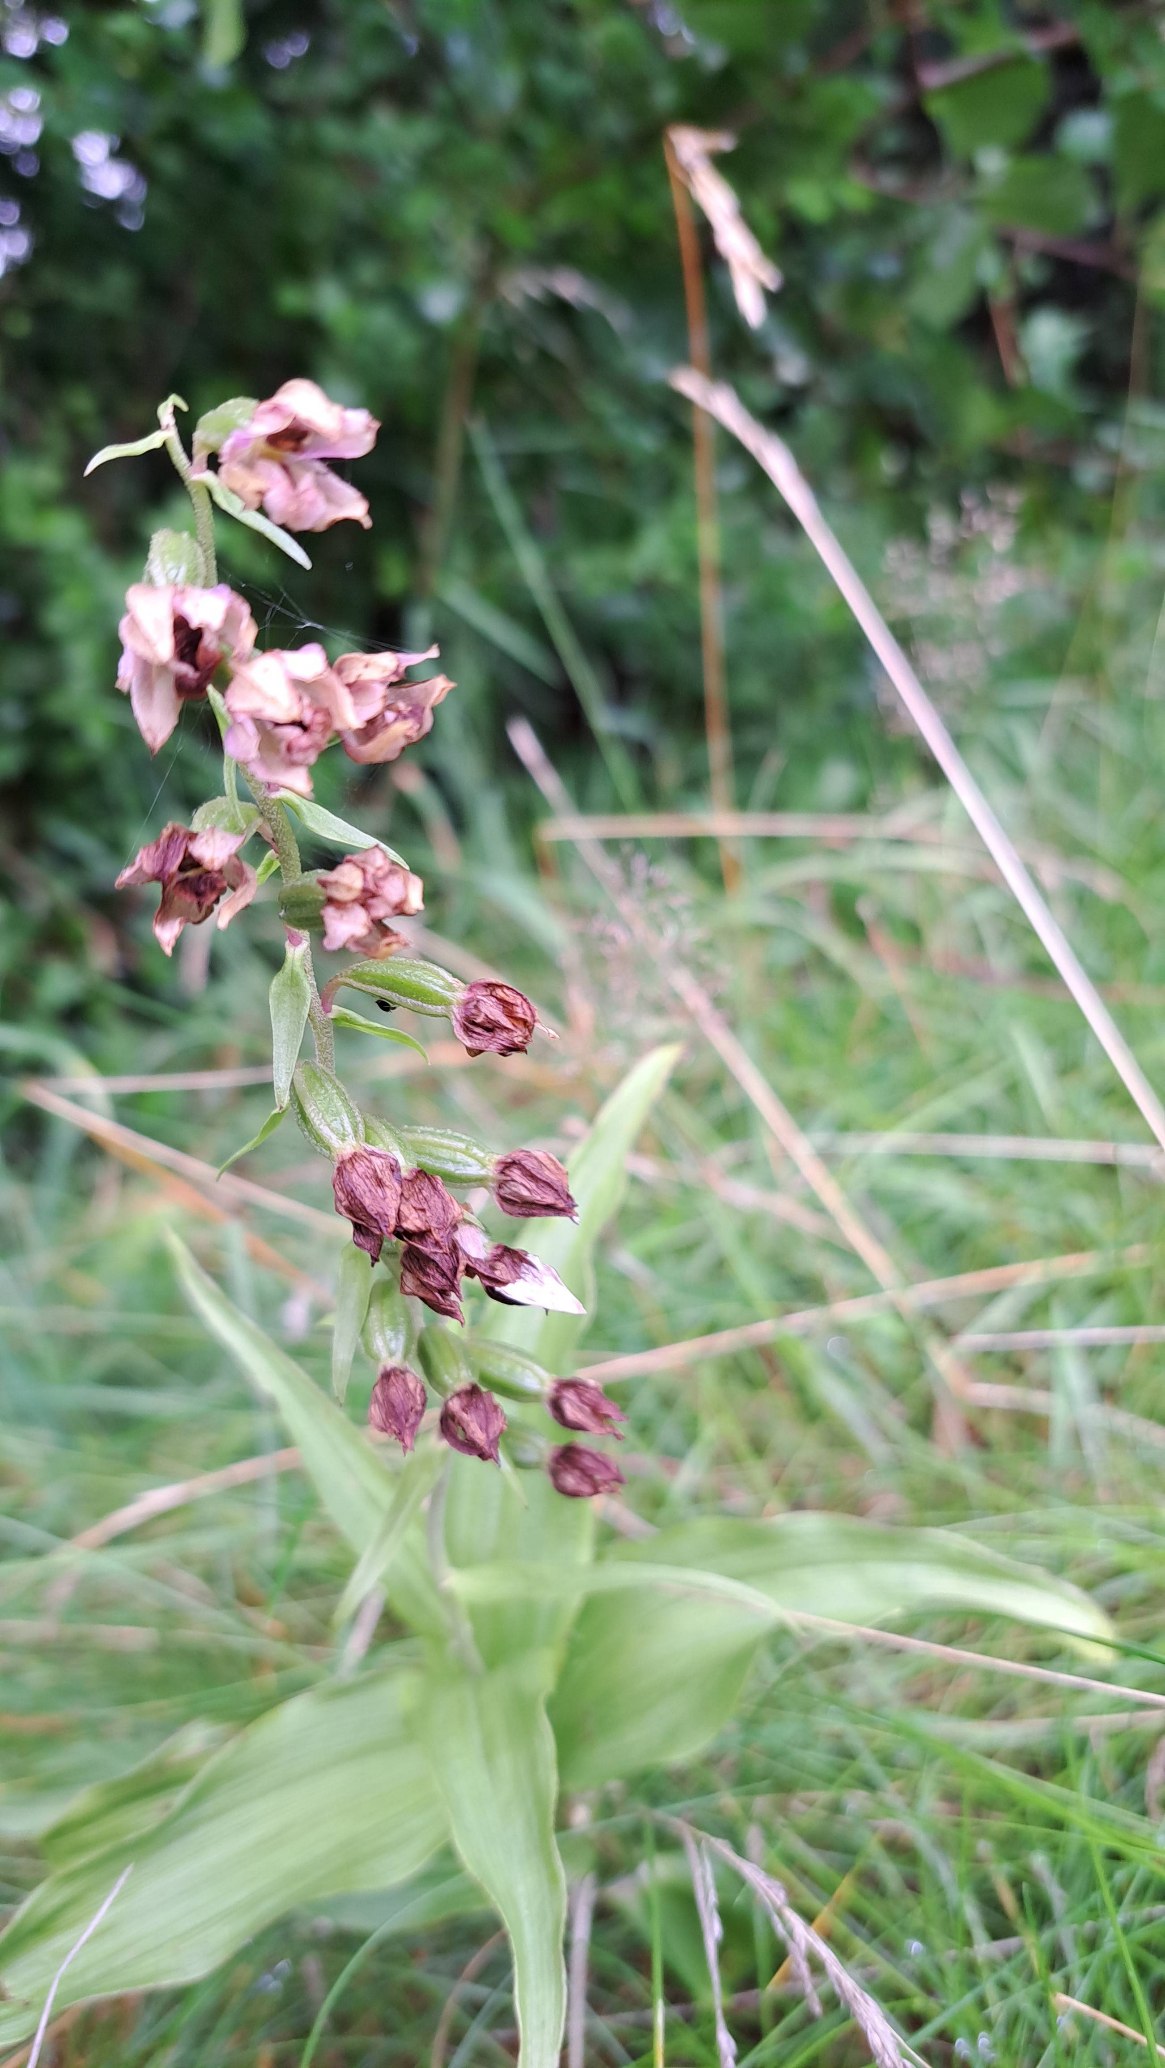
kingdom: Plantae
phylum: Tracheophyta
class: Liliopsida
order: Asparagales
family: Orchidaceae
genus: Epipactis
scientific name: Epipactis helleborine
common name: Skov-hullæbe (underart)
